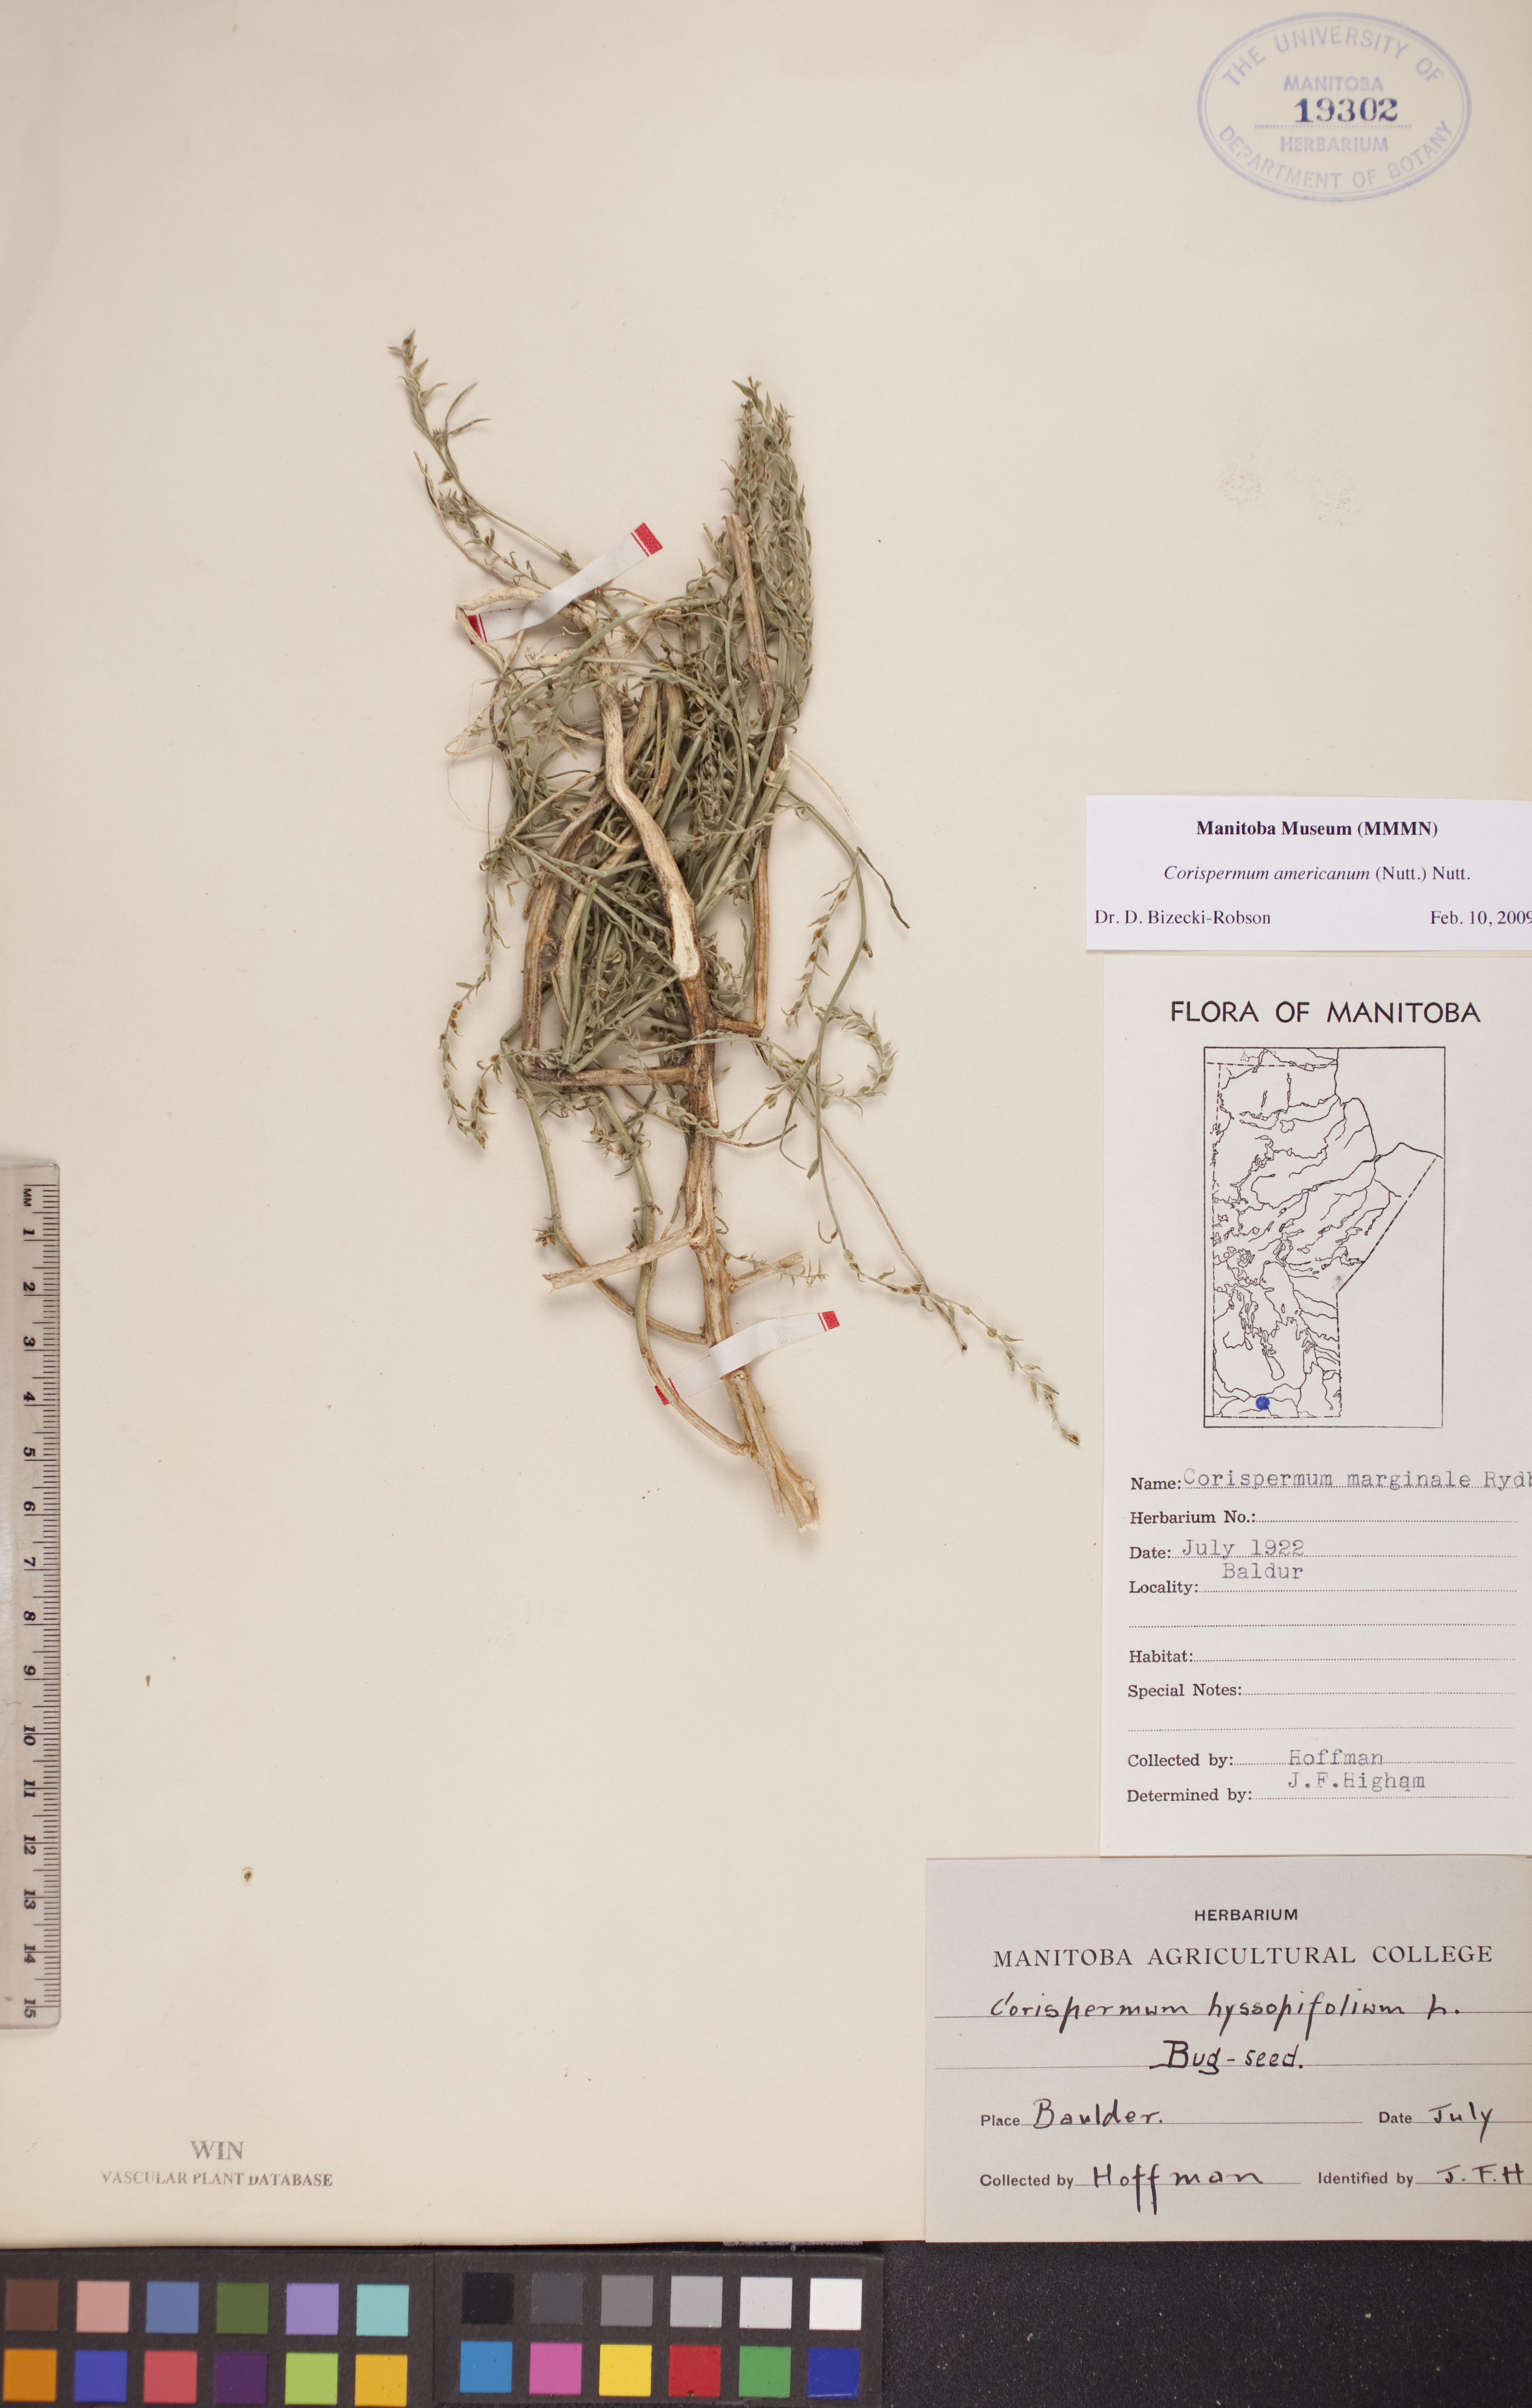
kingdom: Plantae
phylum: Tracheophyta
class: Magnoliopsida
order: Caryophyllales
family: Amaranthaceae
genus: Corispermum
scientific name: Corispermum americanum
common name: American bugseed
